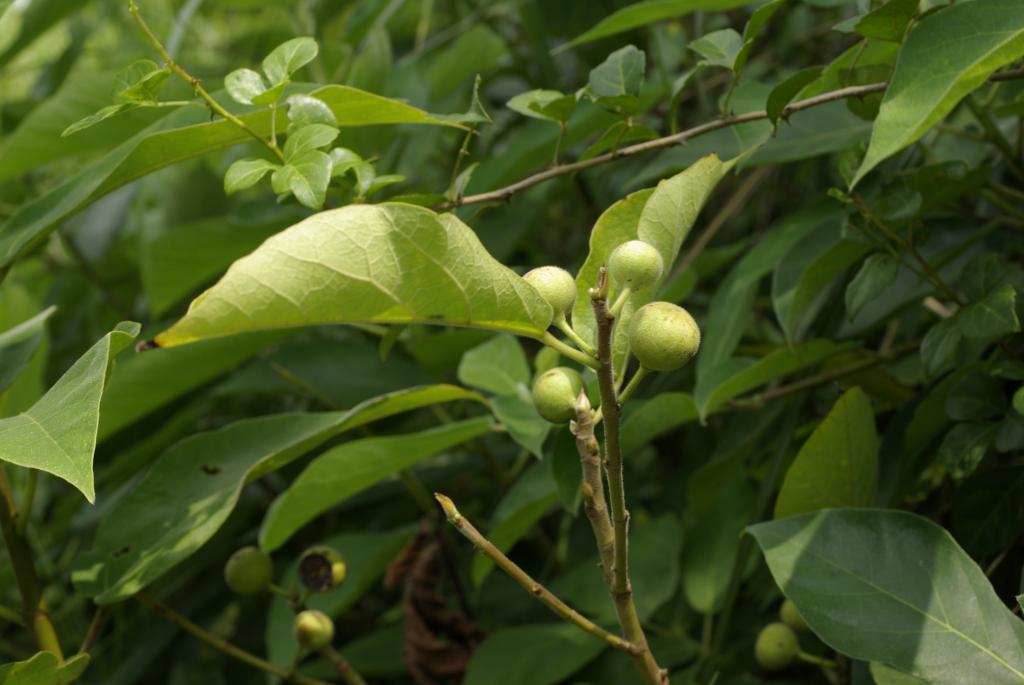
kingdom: Plantae
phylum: Tracheophyta
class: Magnoliopsida
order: Rosales
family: Moraceae
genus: Ficus
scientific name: Ficus erecta
